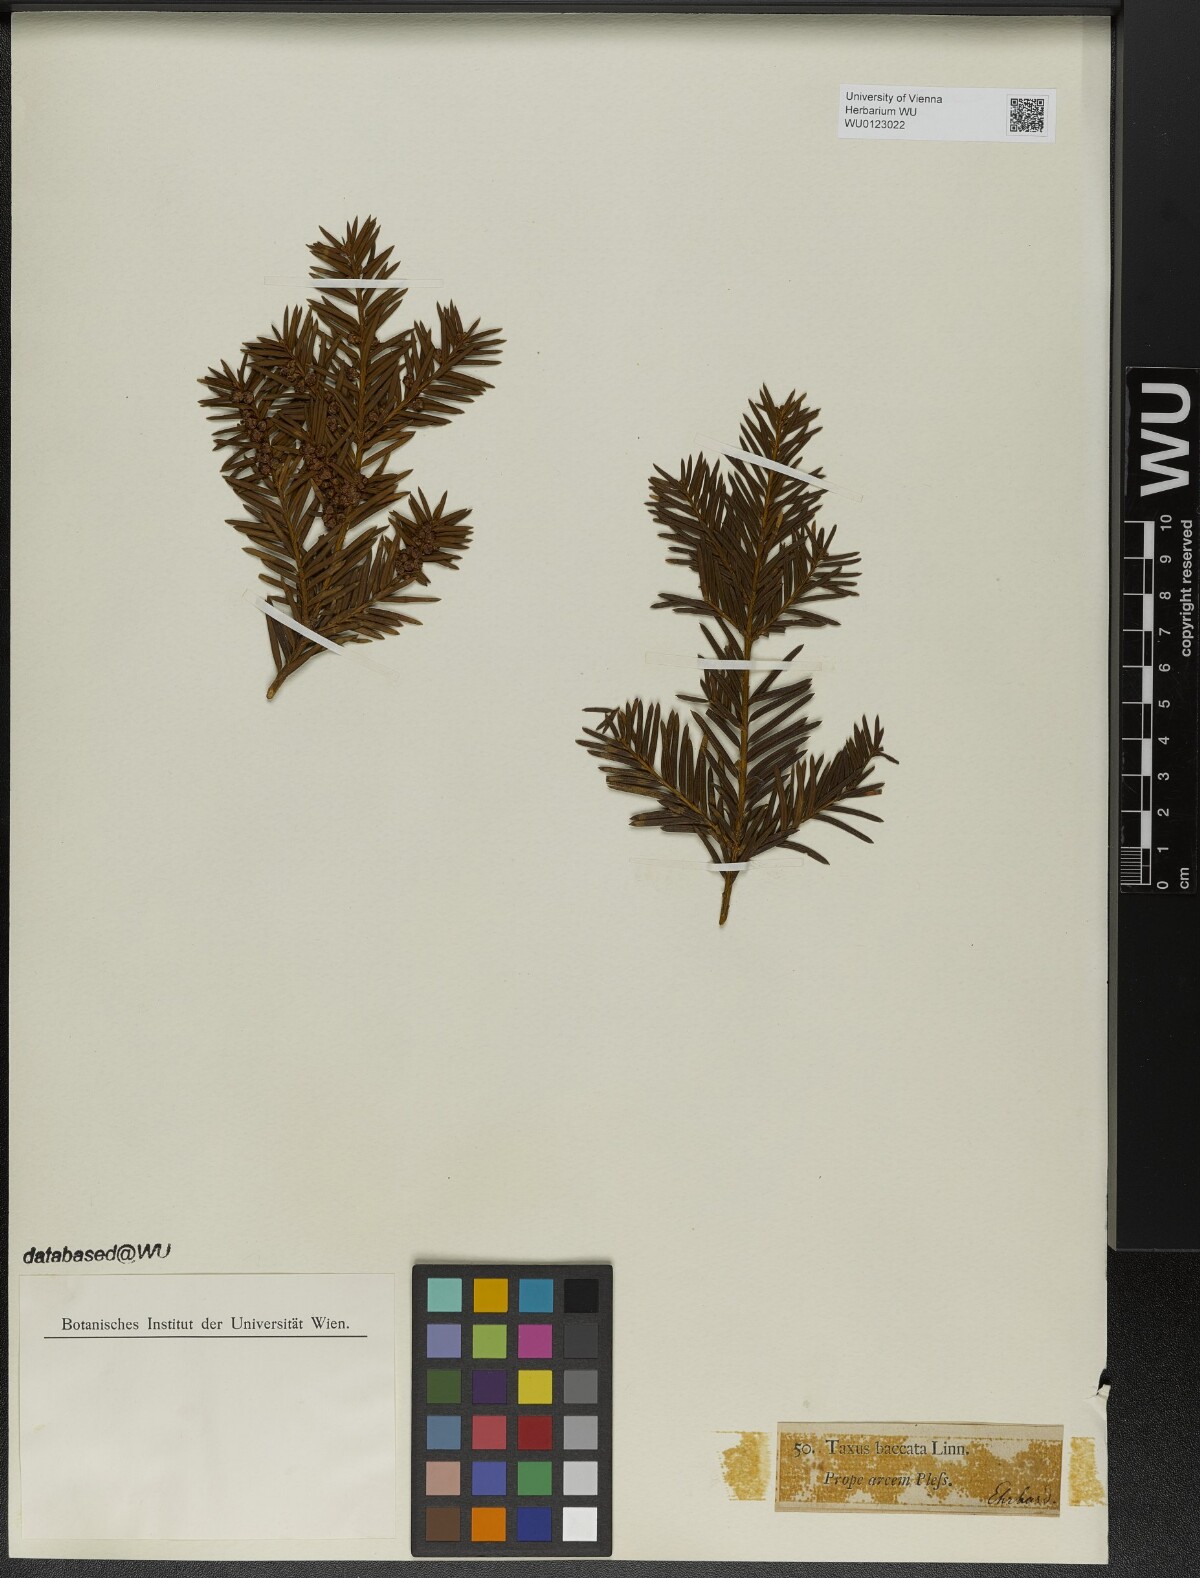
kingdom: Plantae
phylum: Tracheophyta
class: Pinopsida
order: Pinales
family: Taxaceae
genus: Taxus
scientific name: Taxus baccata
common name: Yew
